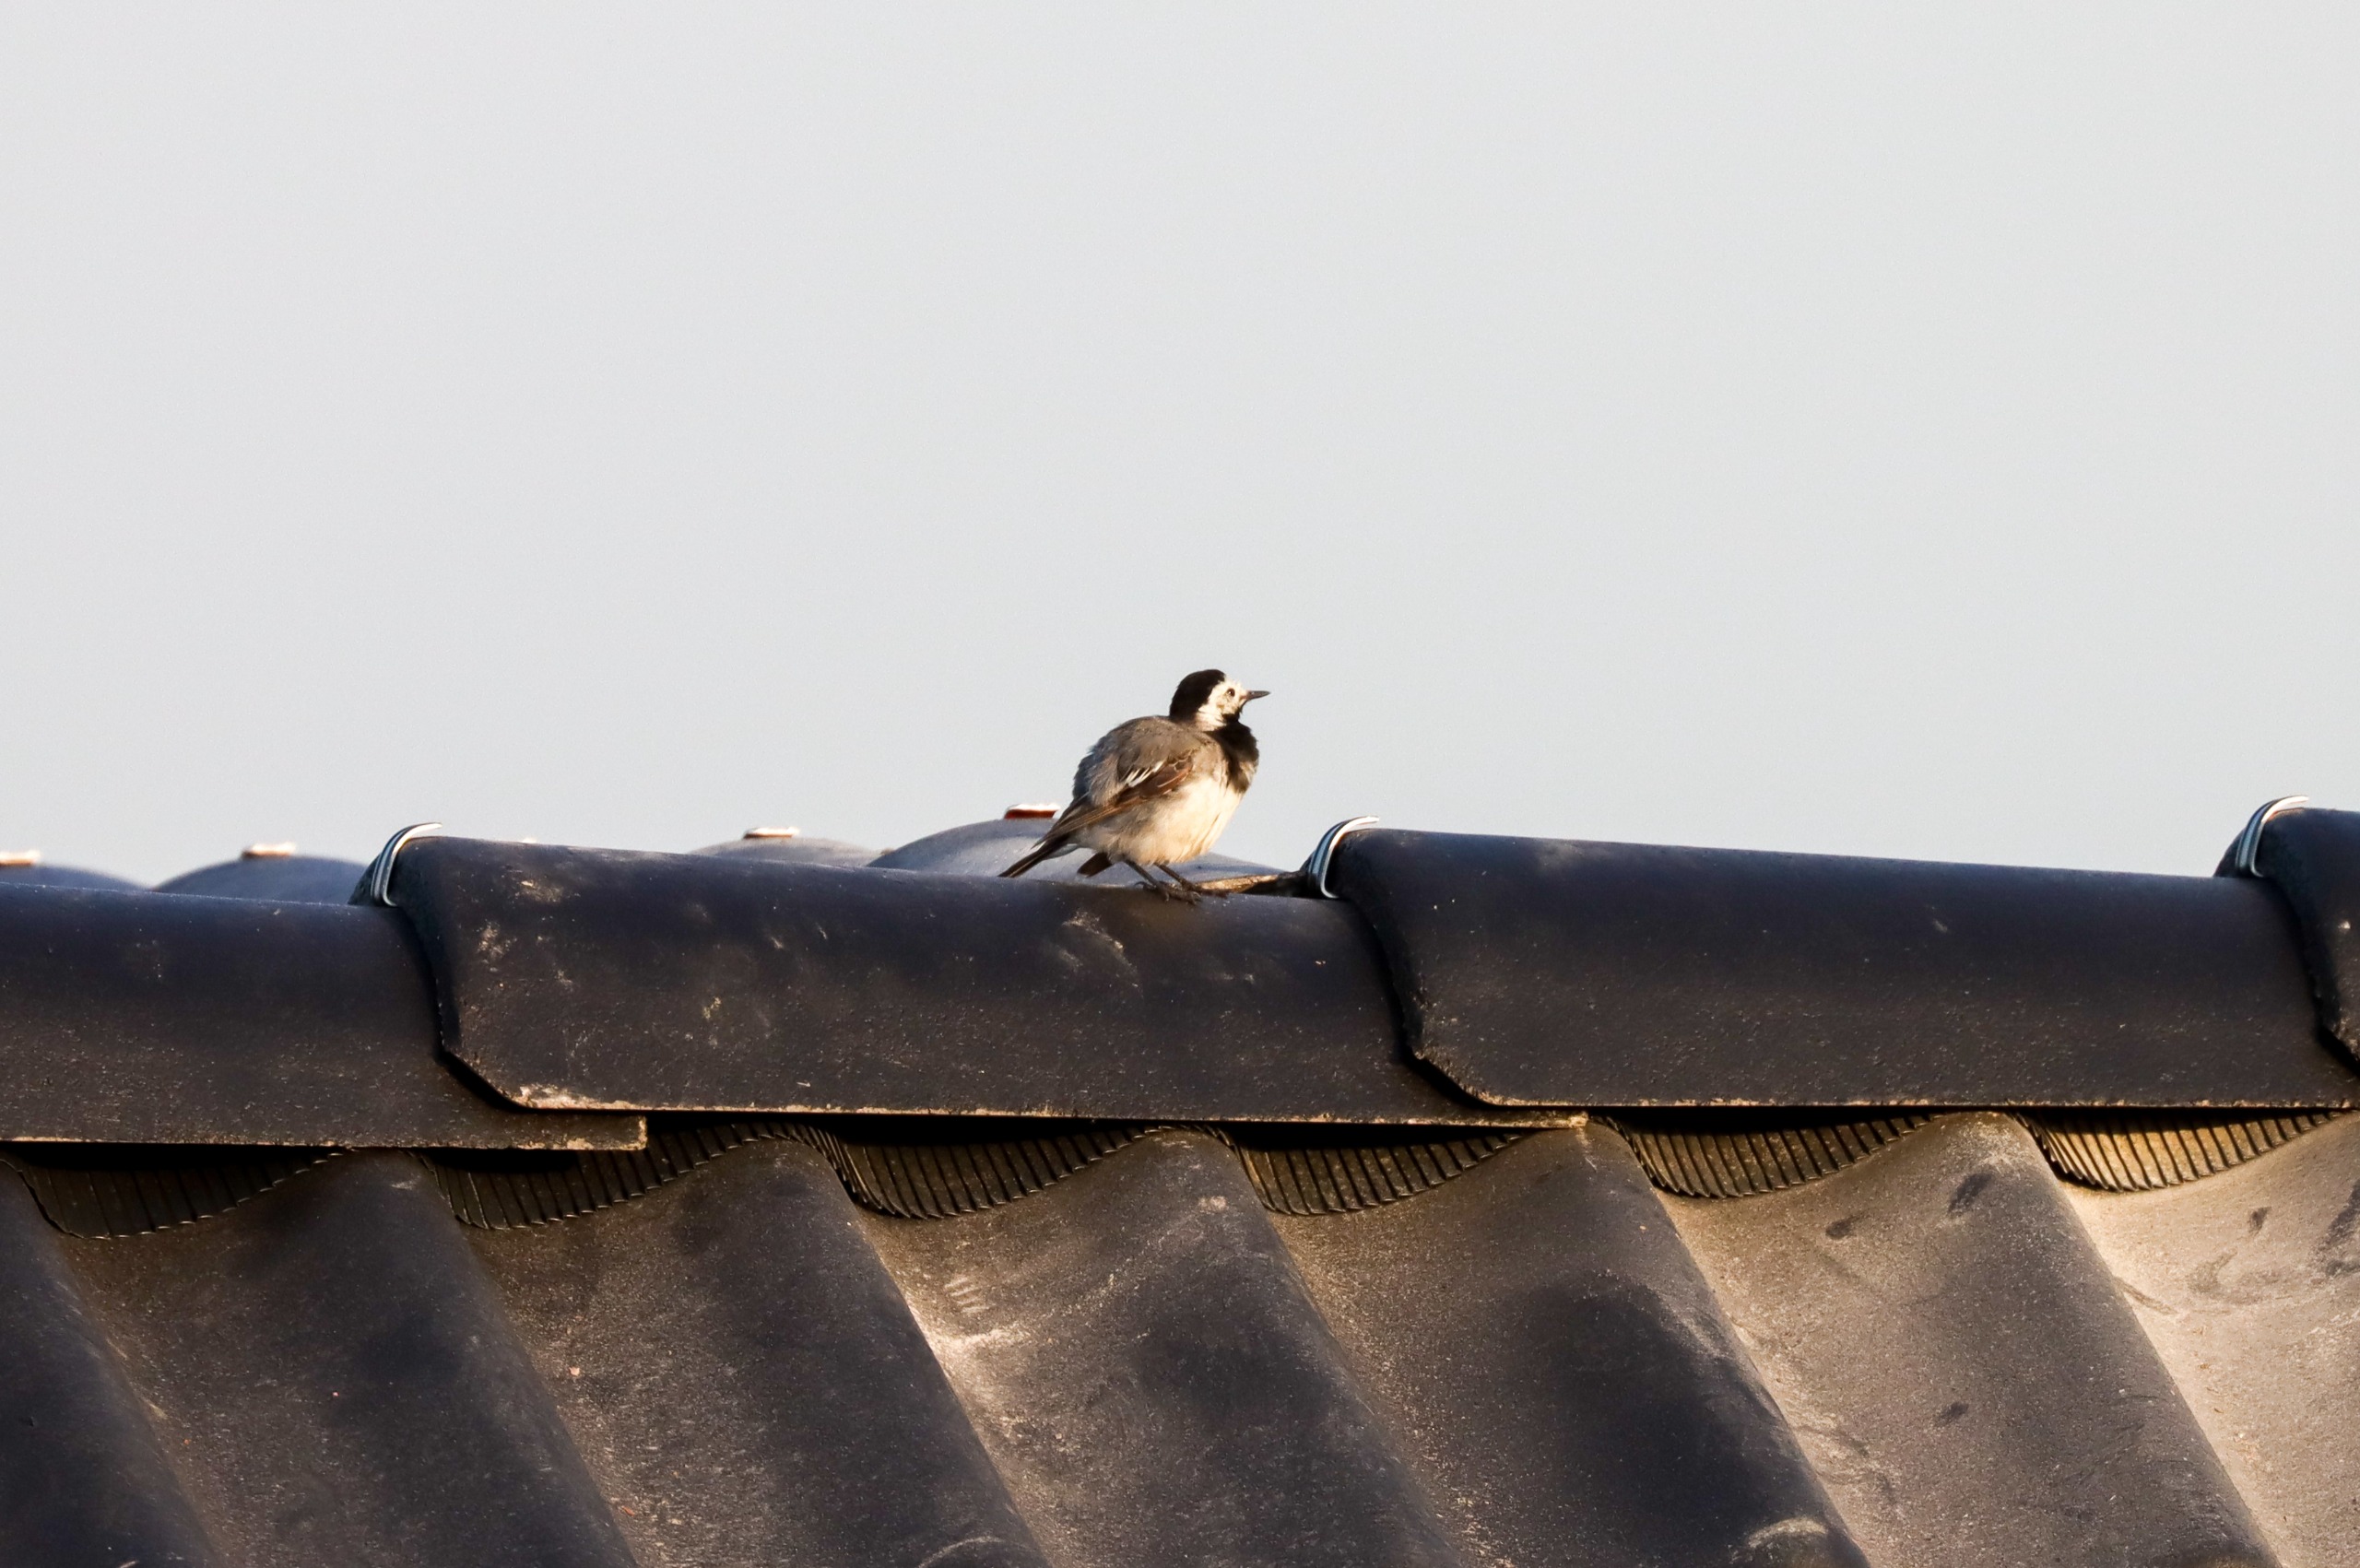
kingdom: Animalia
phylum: Chordata
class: Aves
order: Passeriformes
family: Motacillidae
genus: Motacilla
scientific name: Motacilla alba
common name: Hvid vipstjert
